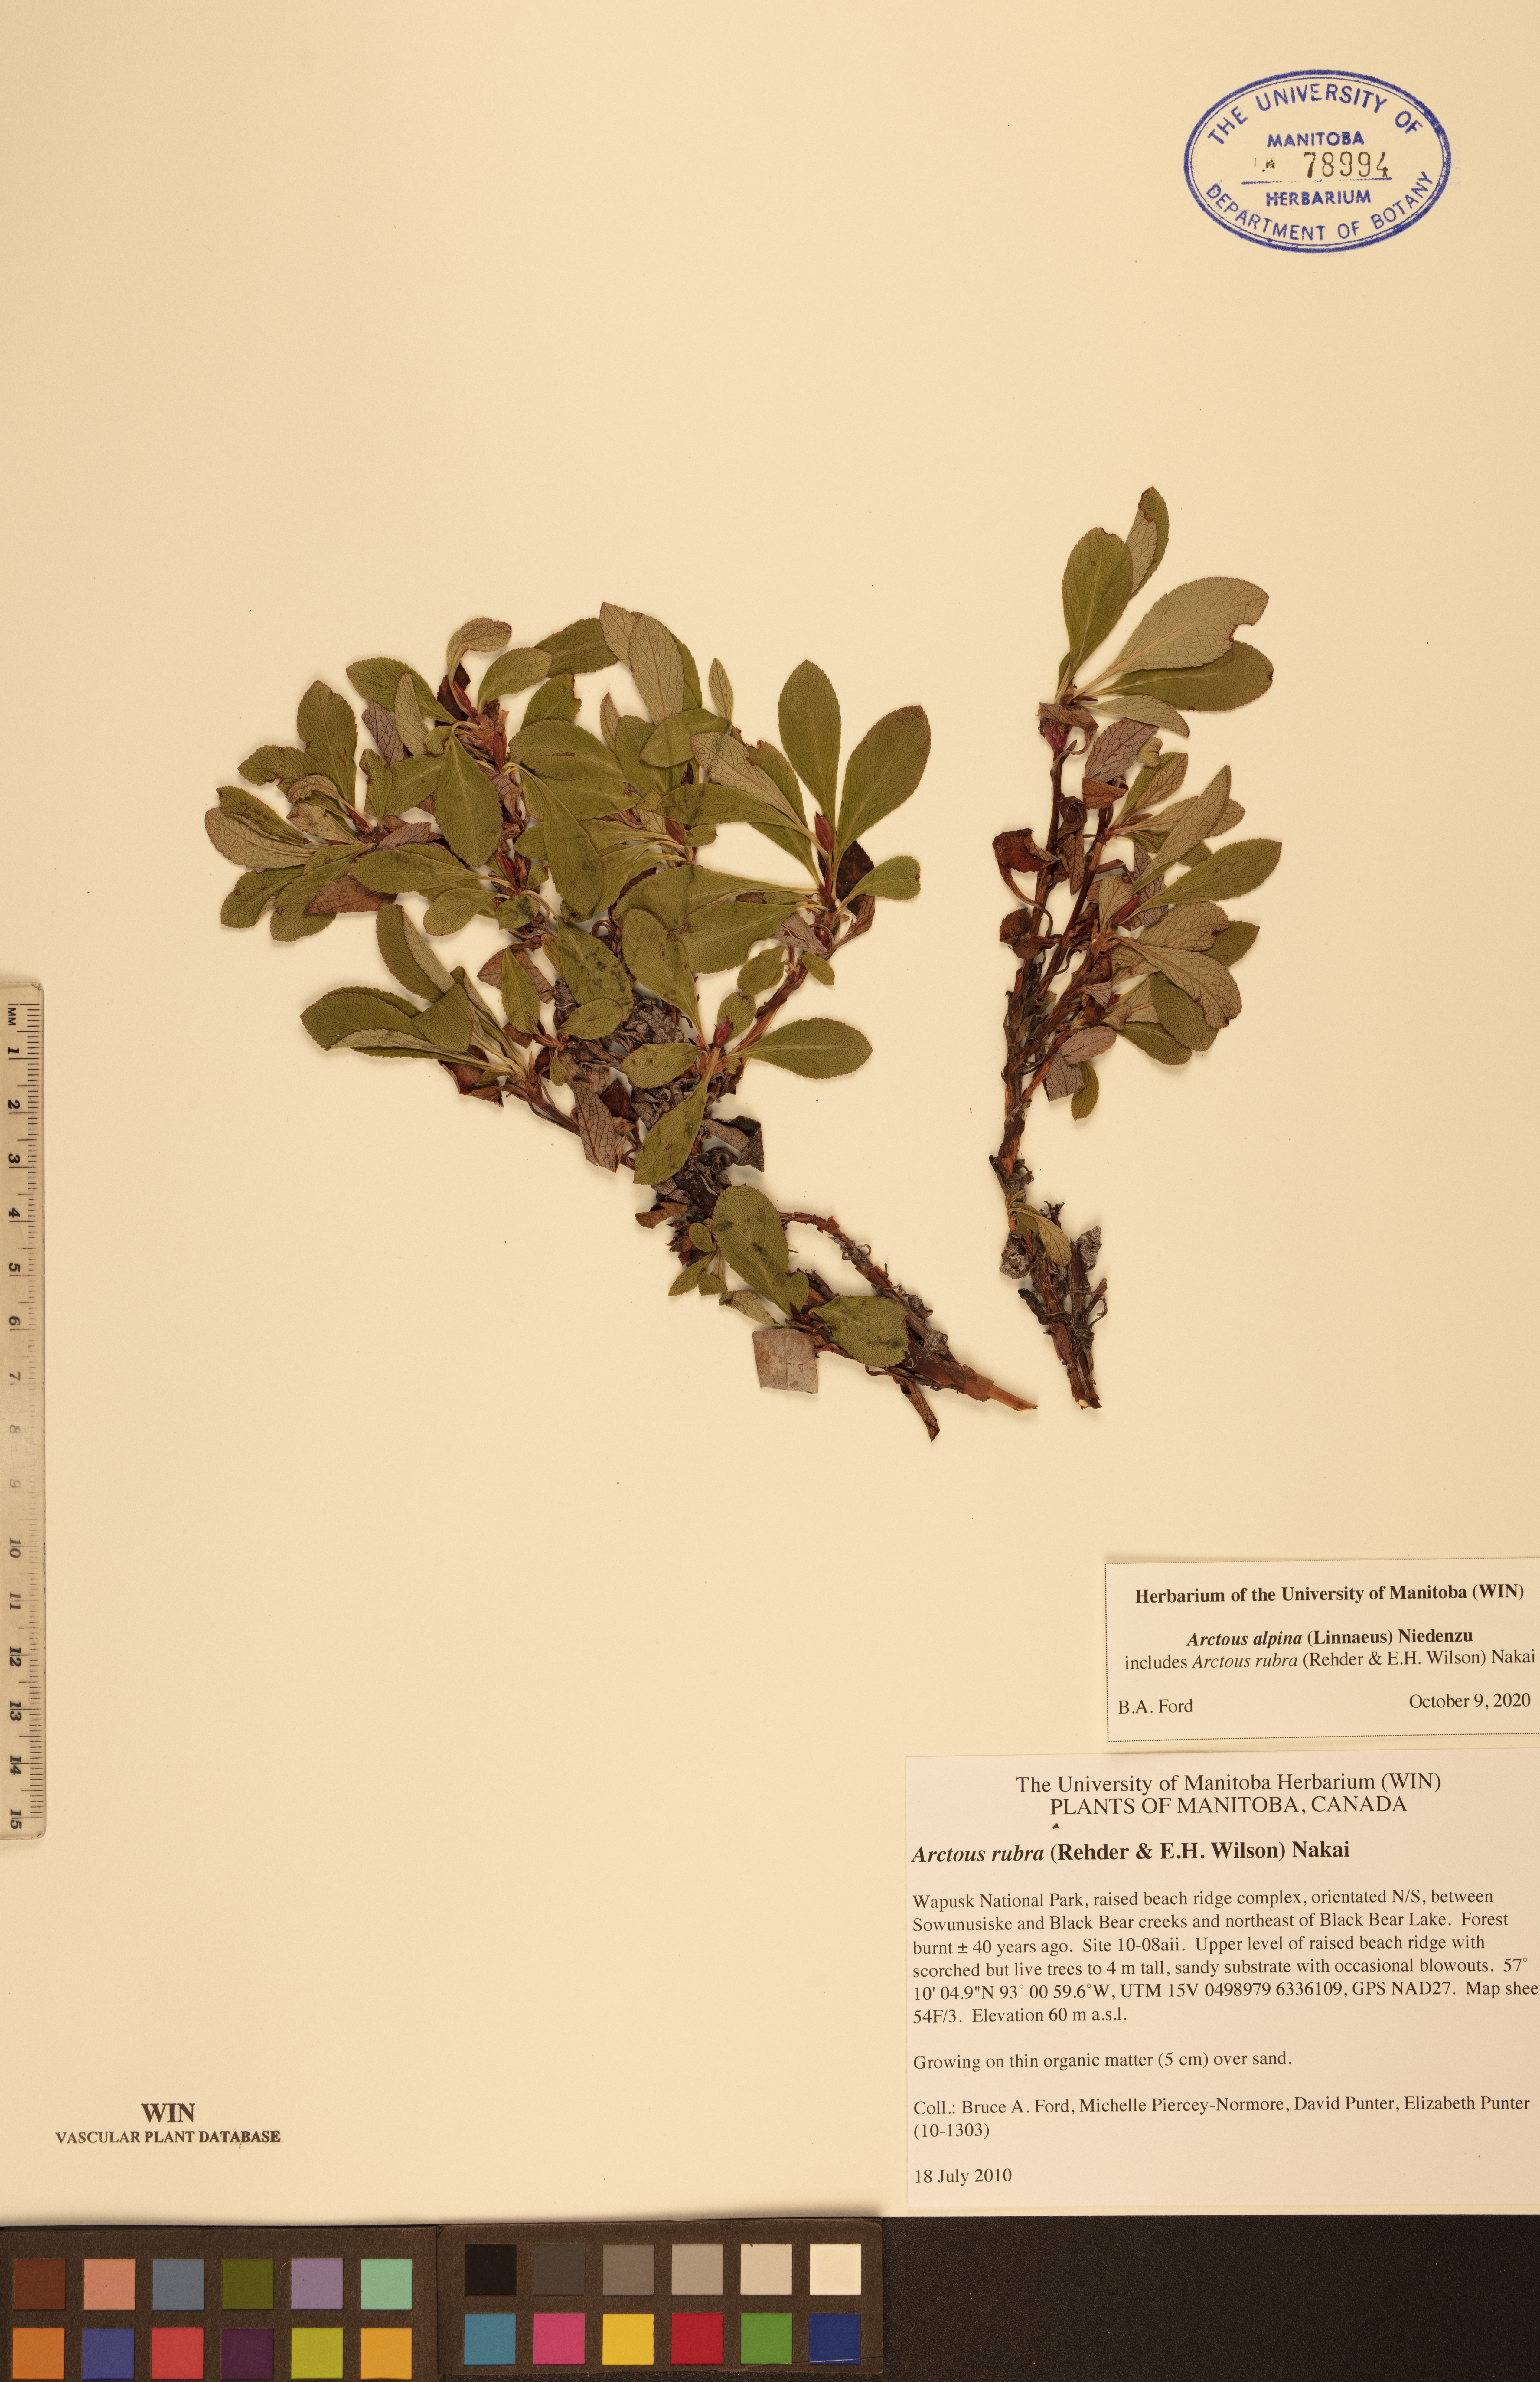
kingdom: Plantae
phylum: Tracheophyta
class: Magnoliopsida
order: Ericales
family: Ericaceae
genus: Arctostaphylos
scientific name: Arctostaphylos alpinus
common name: Alpine bearberry
